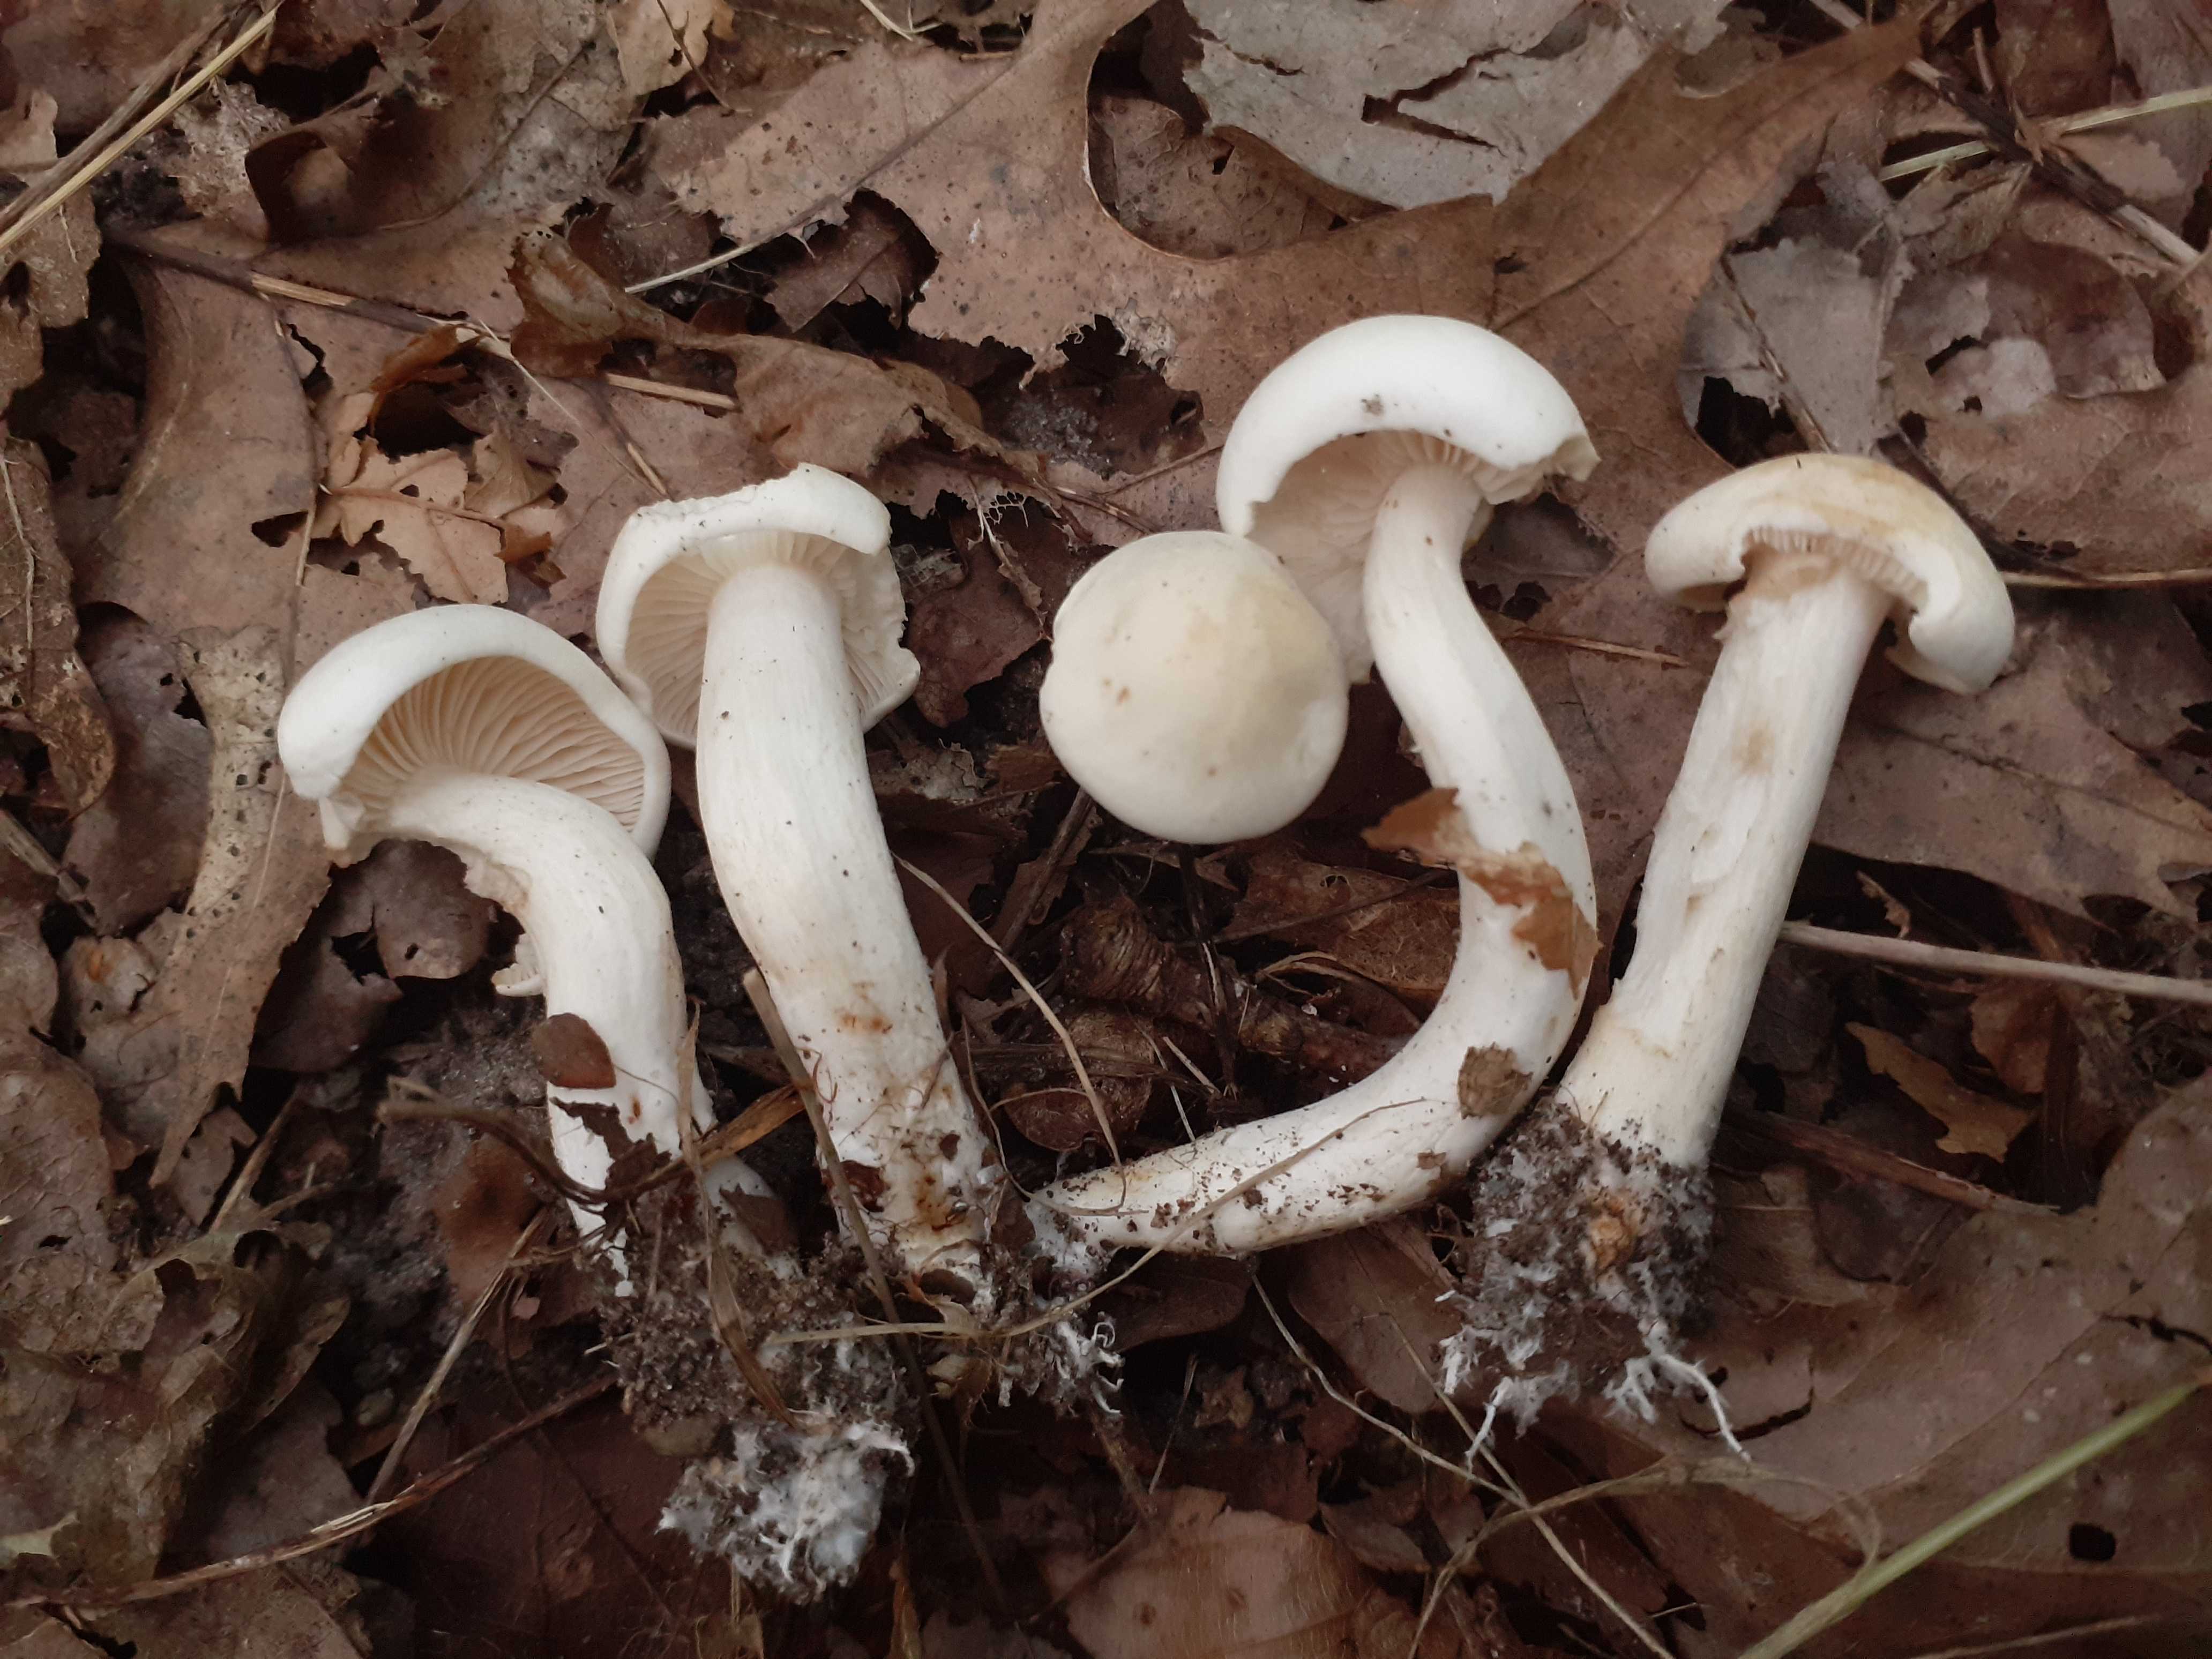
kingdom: Fungi
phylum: Basidiomycota
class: Agaricomycetes
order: Agaricales
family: Tricholomataceae
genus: Tricholoma
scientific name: Tricholoma album
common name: honning-ridderhat
